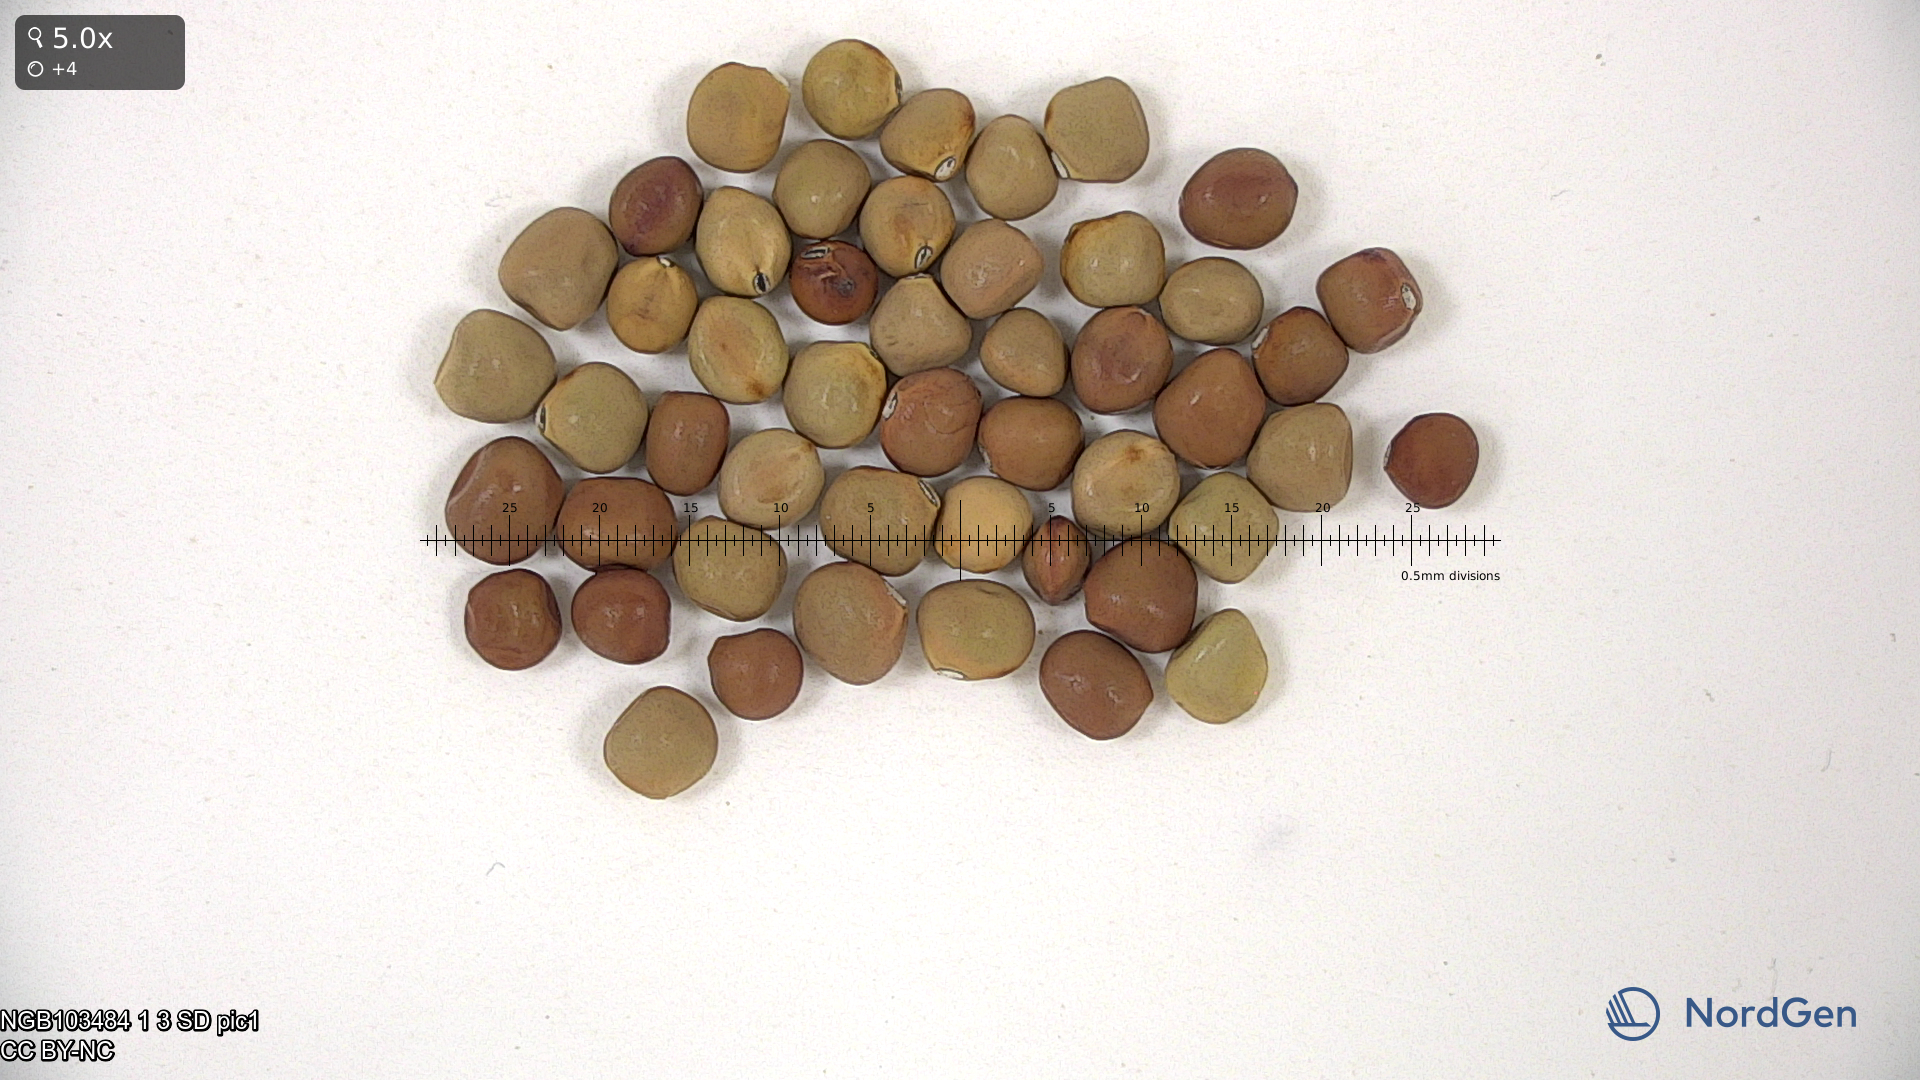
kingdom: Plantae
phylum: Tracheophyta
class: Magnoliopsida
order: Fabales
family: Fabaceae
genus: Lathyrus
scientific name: Lathyrus oleraceus
